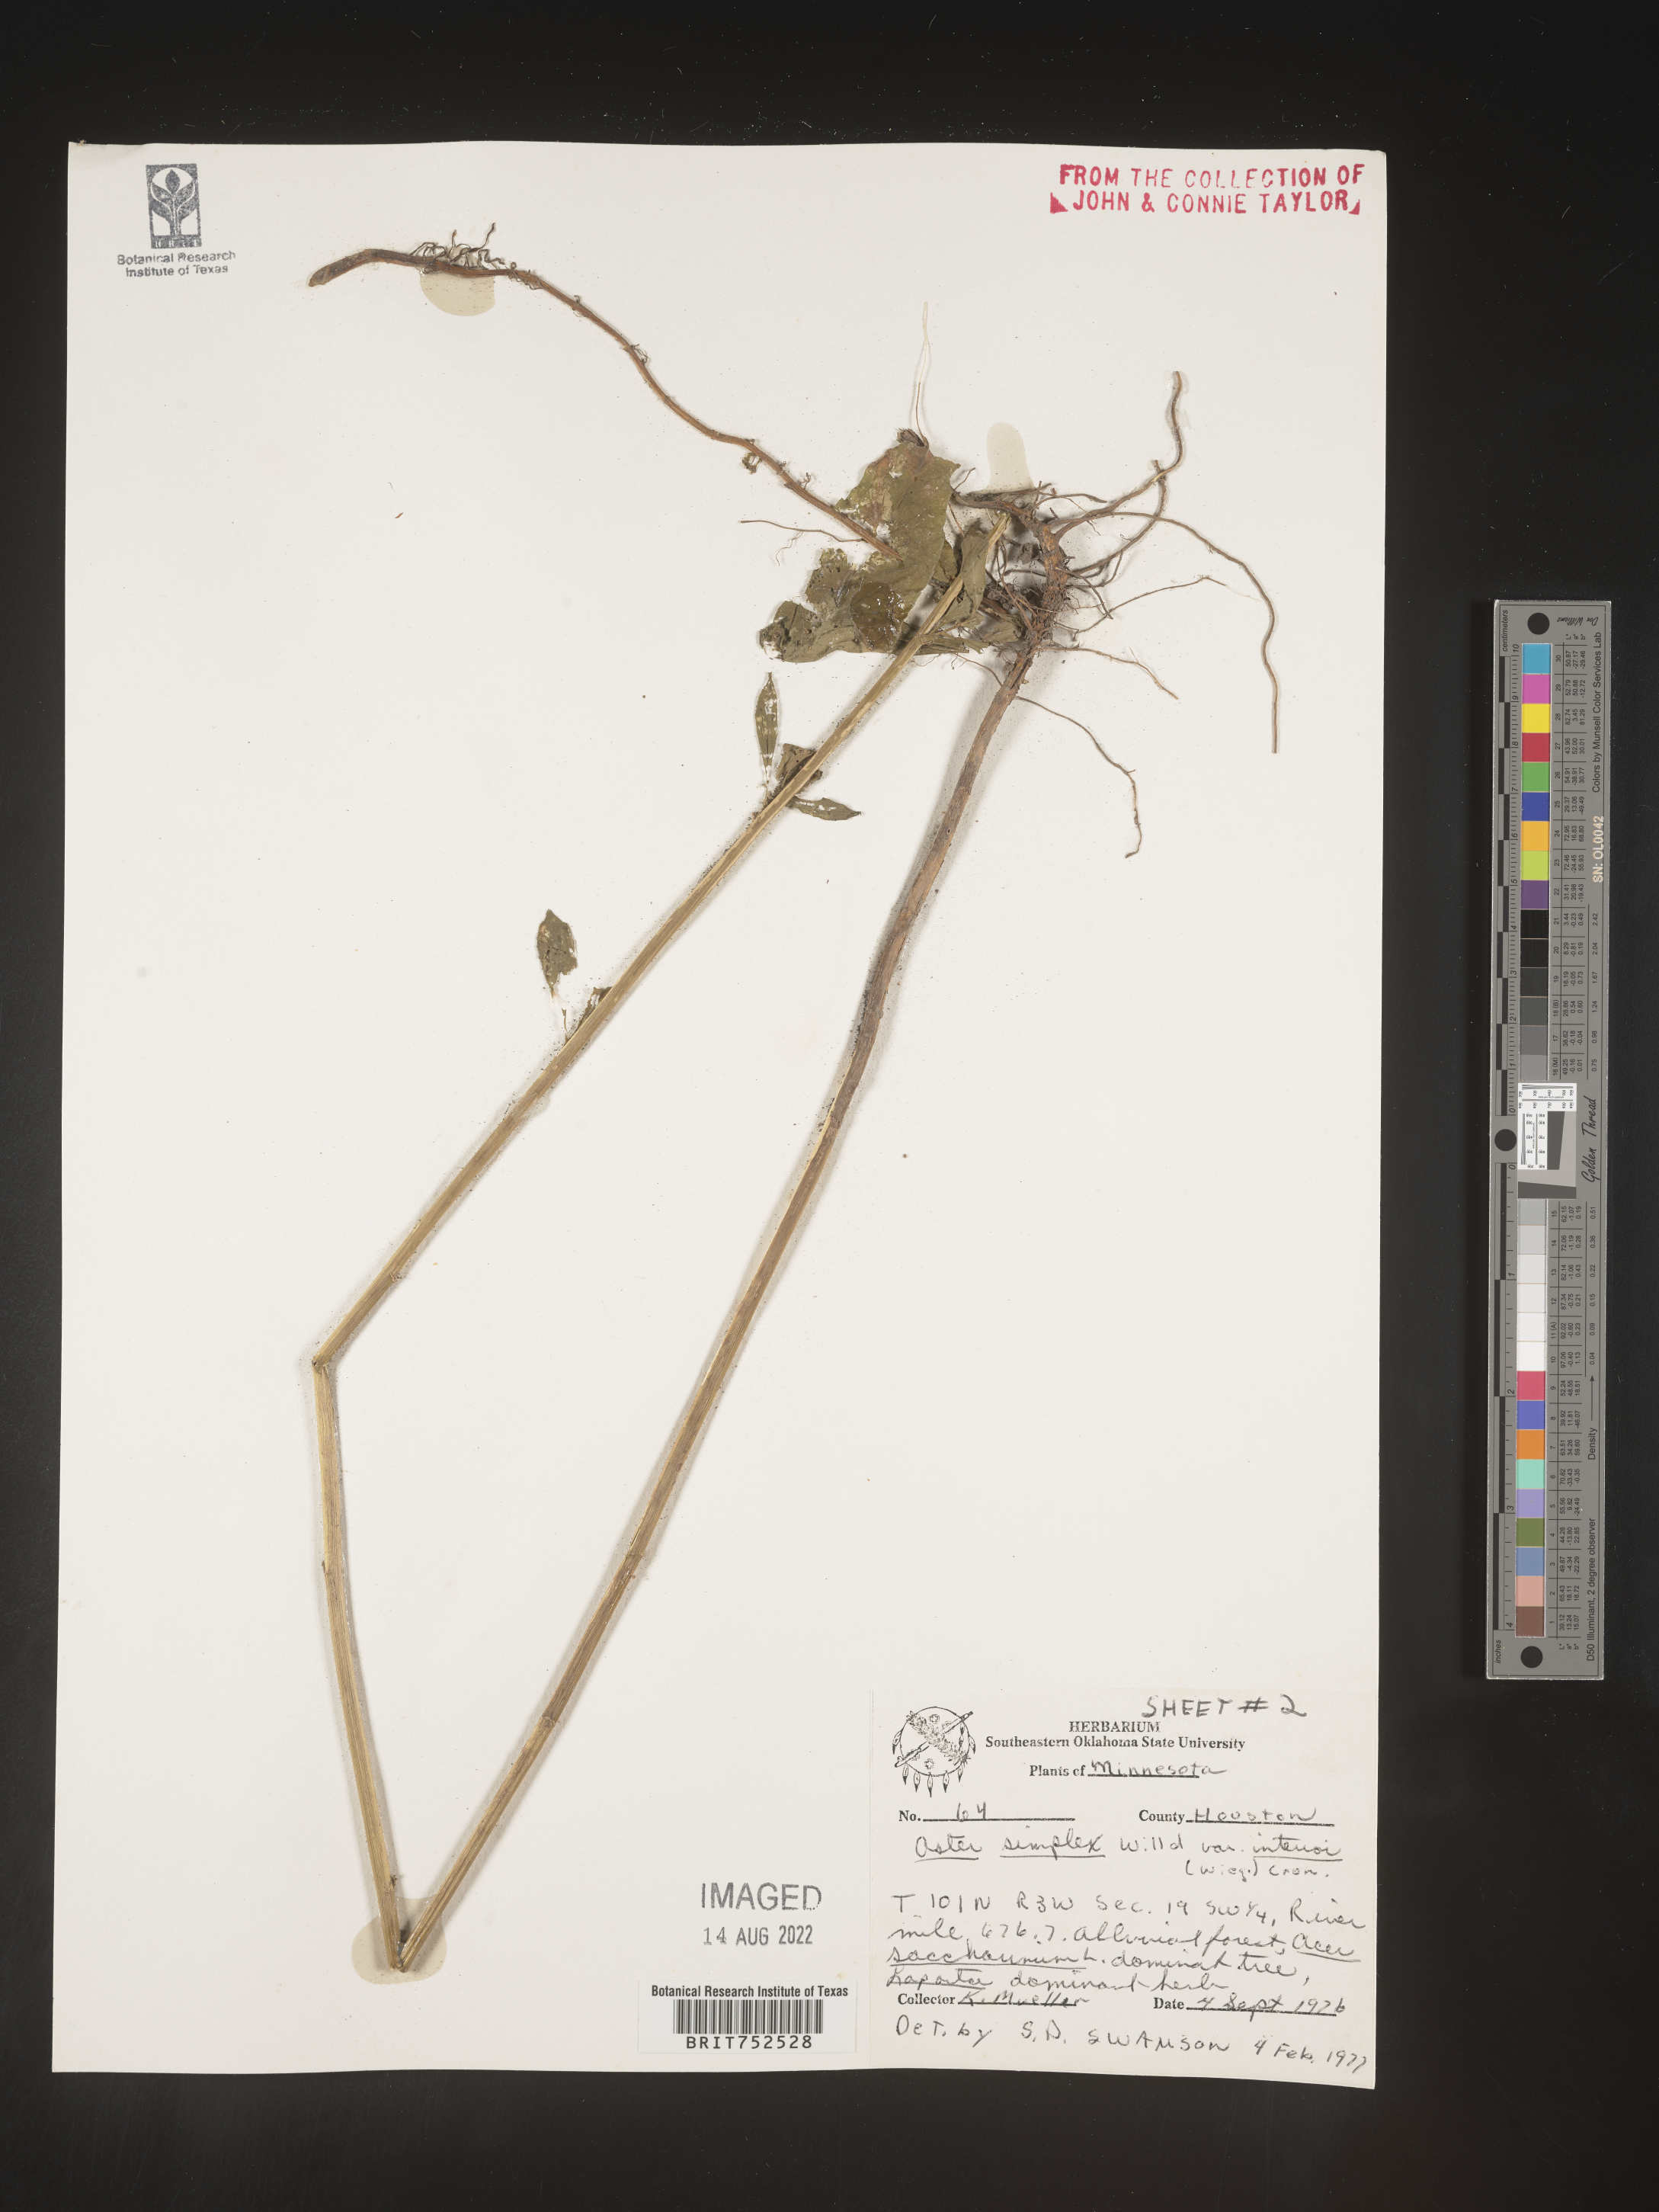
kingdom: Plantae
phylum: Tracheophyta
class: Magnoliopsida
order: Asterales
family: Asteraceae
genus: Symphyotrichum
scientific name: Symphyotrichum lanceolatum
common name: Panicled aster
